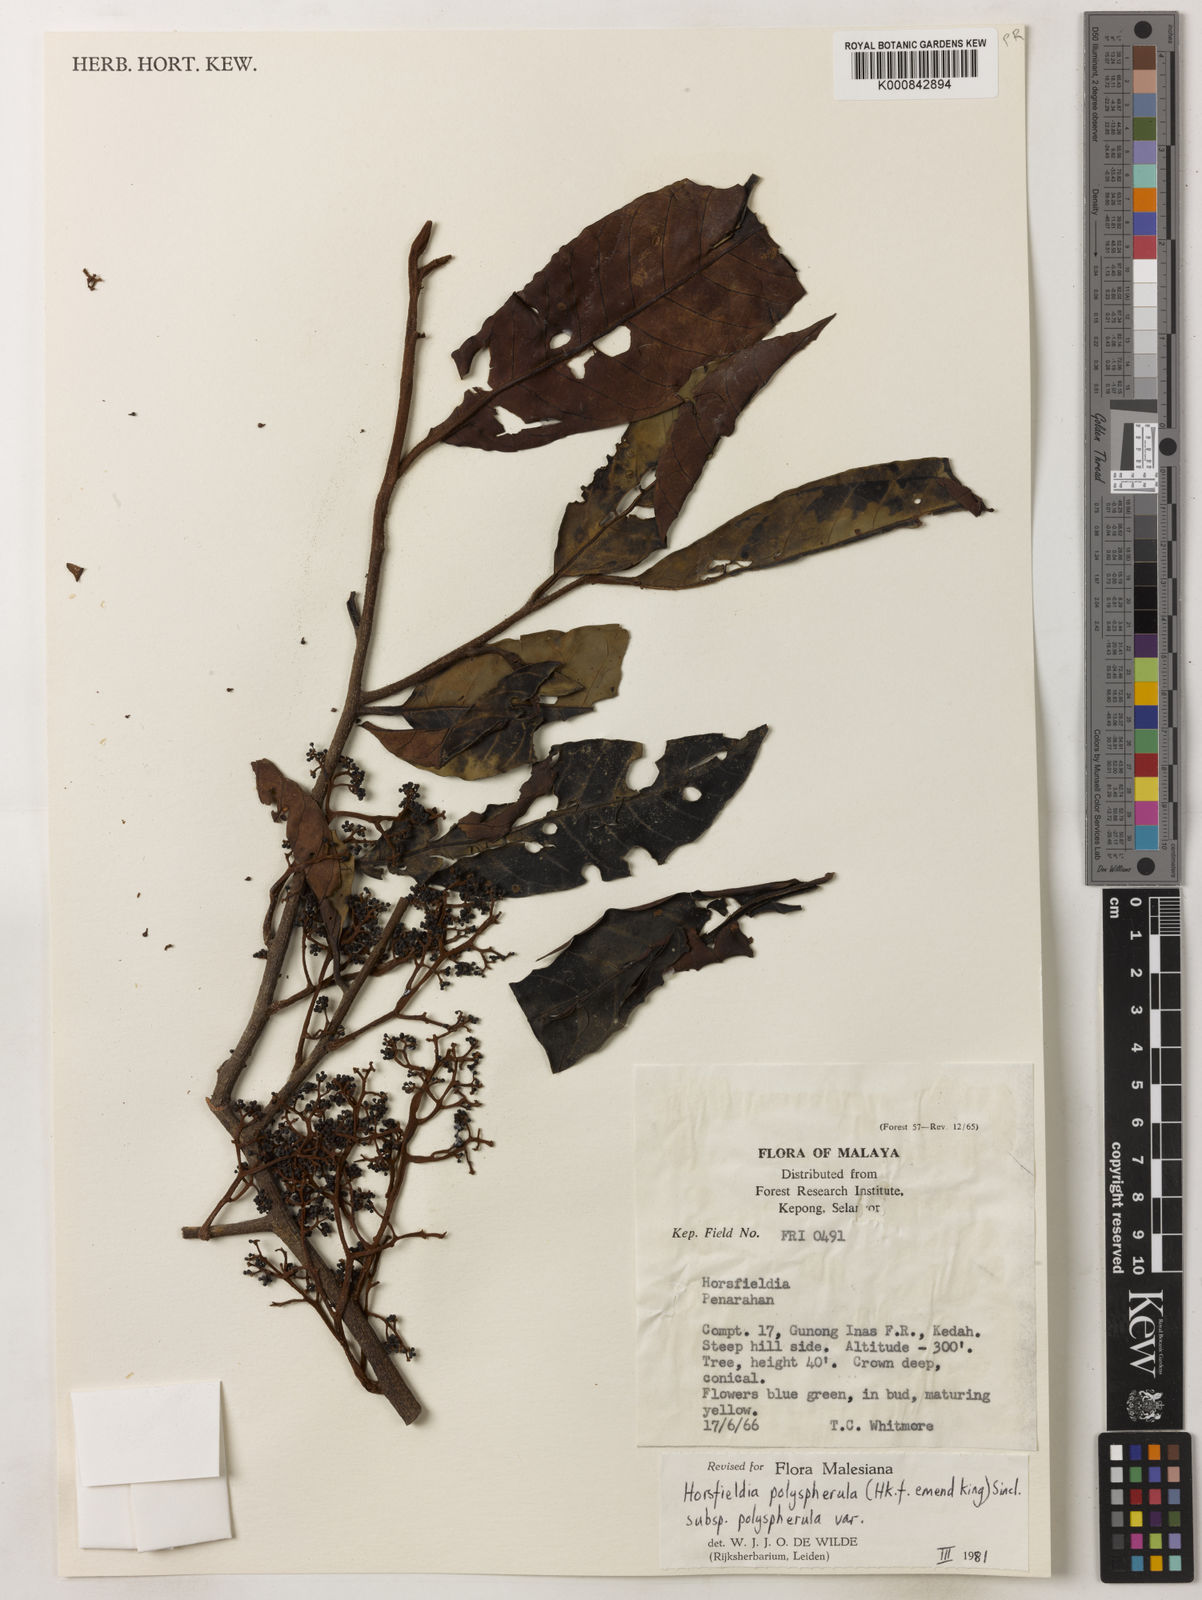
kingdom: Plantae
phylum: Tracheophyta
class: Magnoliopsida
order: Magnoliales
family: Myristicaceae
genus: Horsfieldia
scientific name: Horsfieldia
